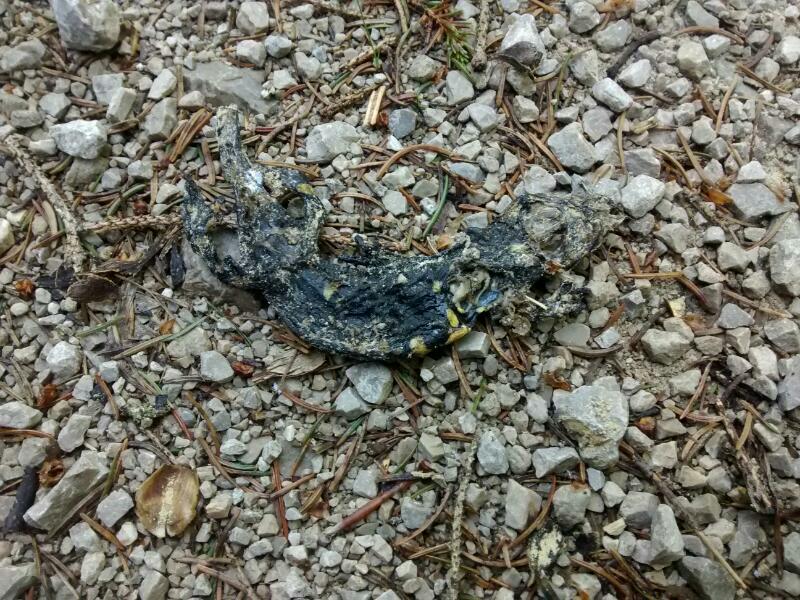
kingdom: Animalia
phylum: Chordata
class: Amphibia
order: Caudata
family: Salamandridae
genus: Salamandra
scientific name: Salamandra salamandra
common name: Fire salamander
